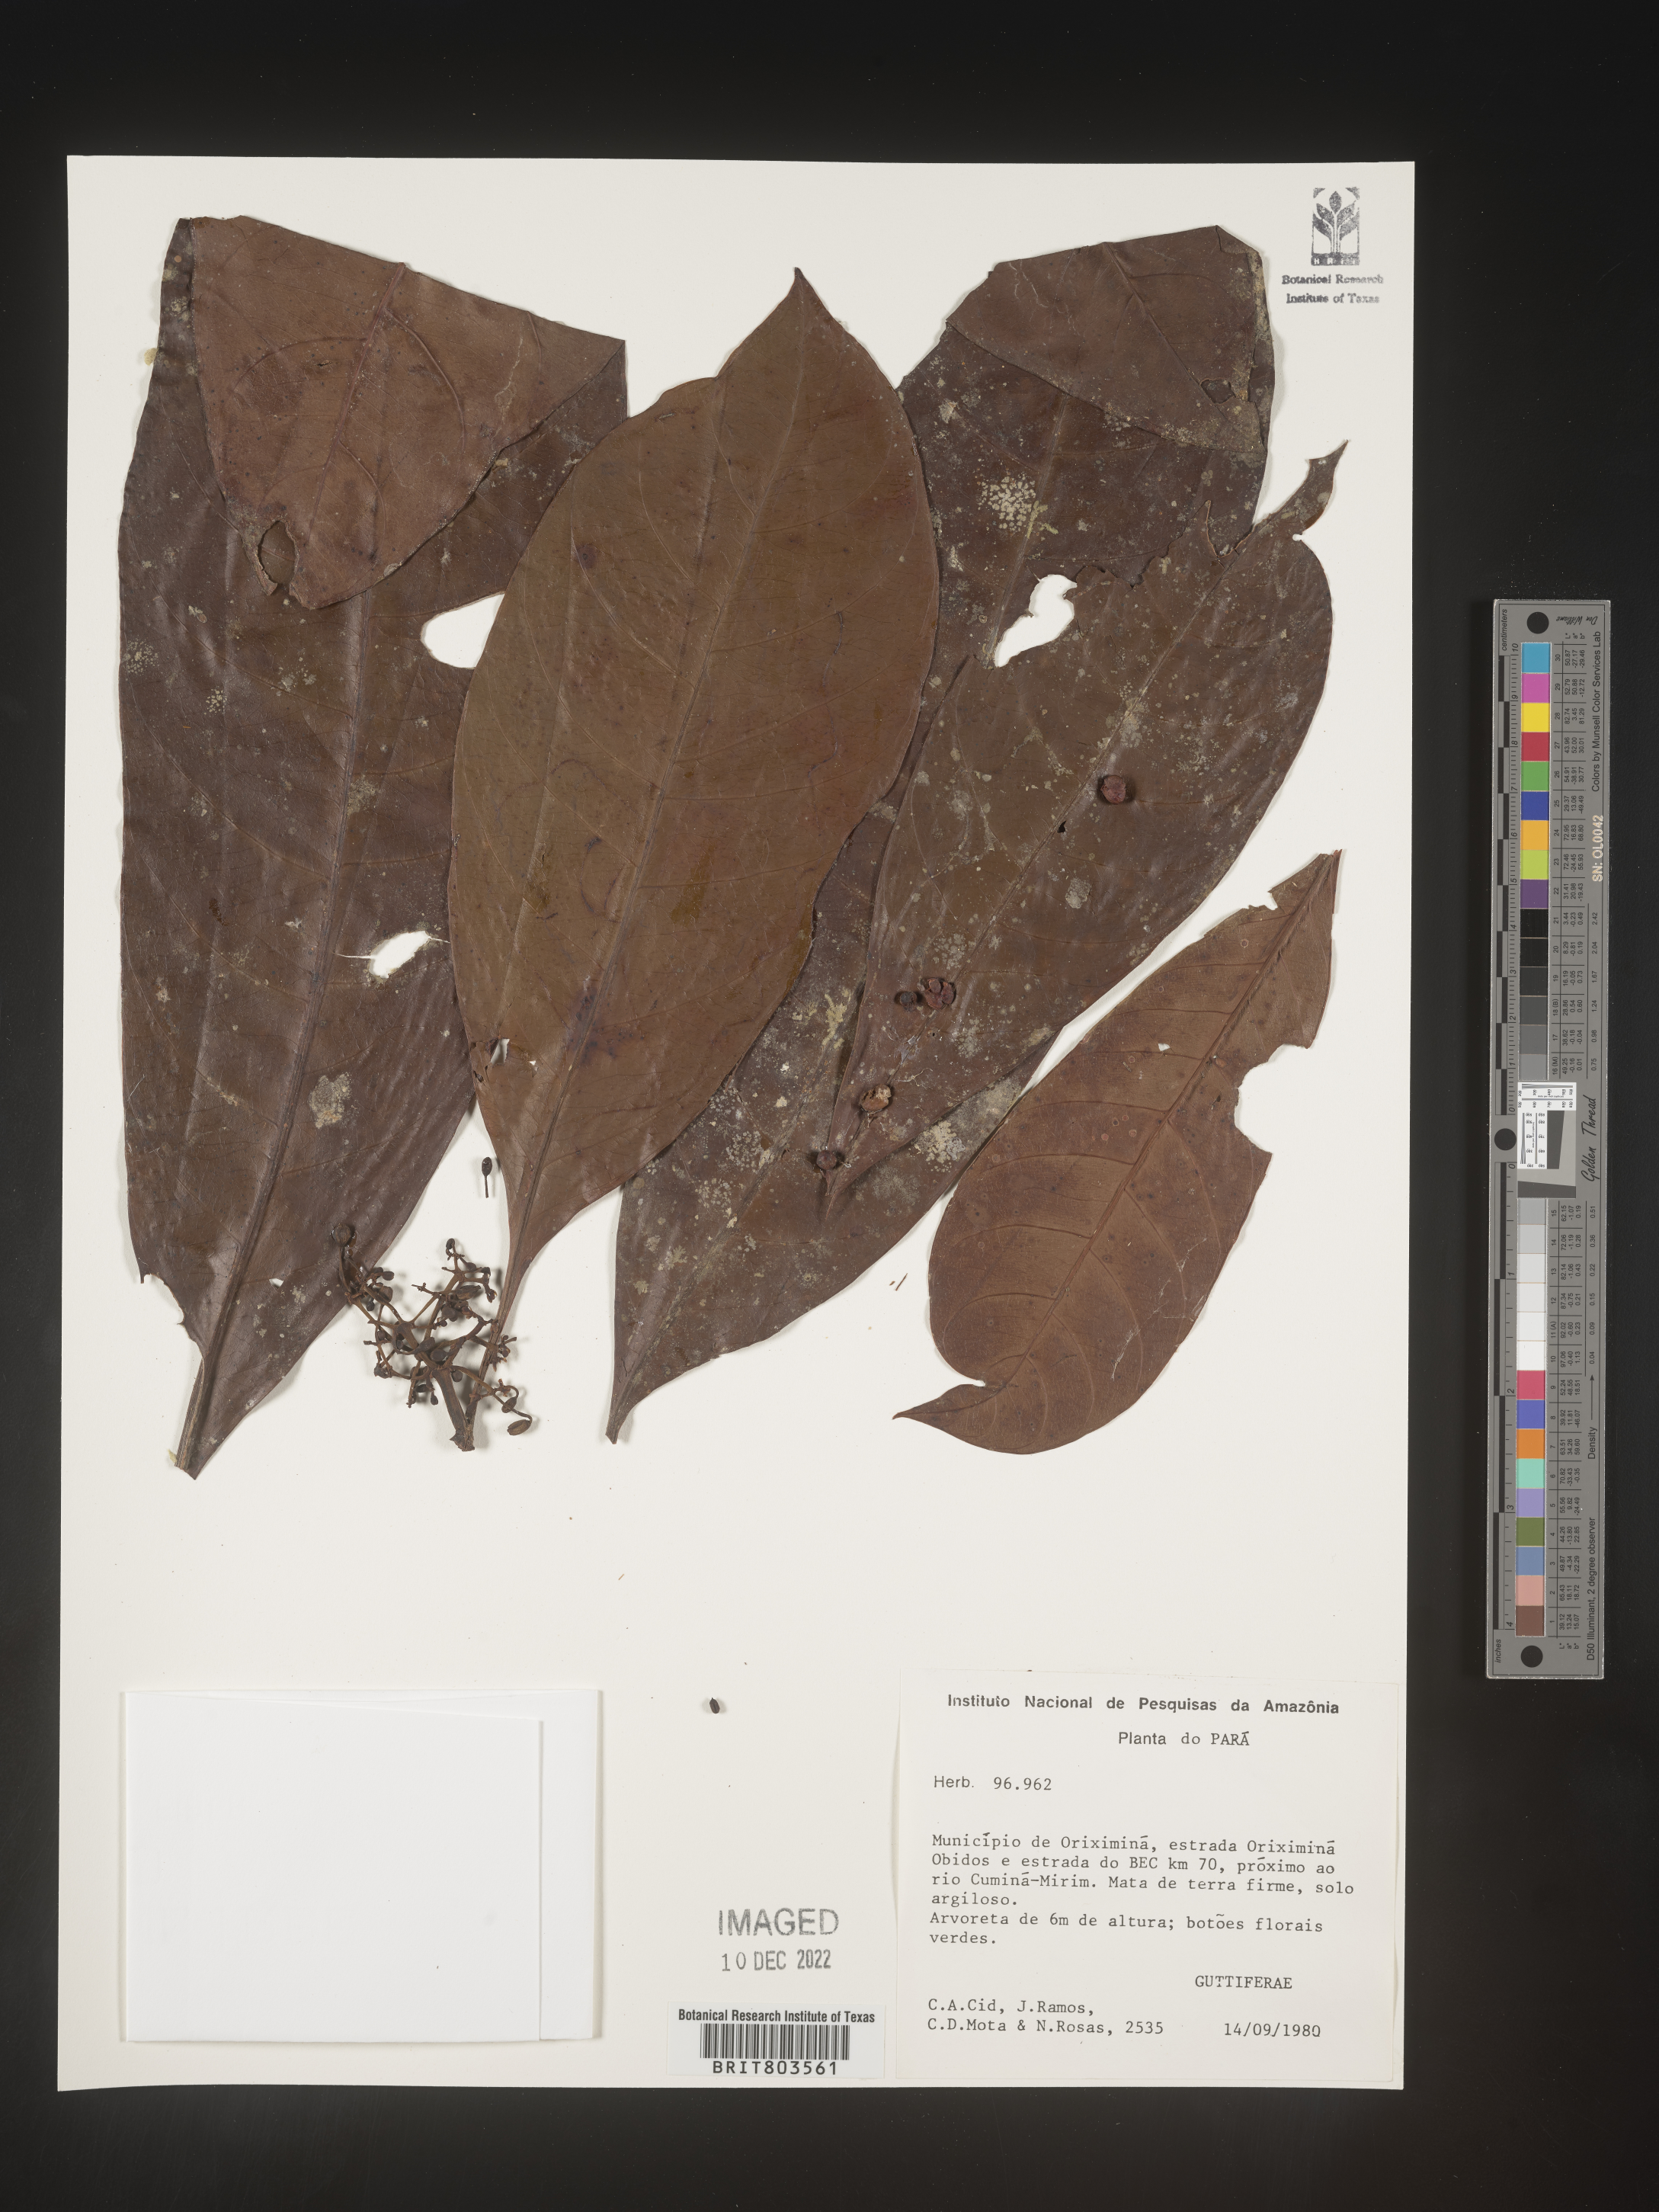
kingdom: Plantae
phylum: Tracheophyta
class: Magnoliopsida
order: Malpighiales
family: Clusiaceae
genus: Tovomita
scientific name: Tovomita
